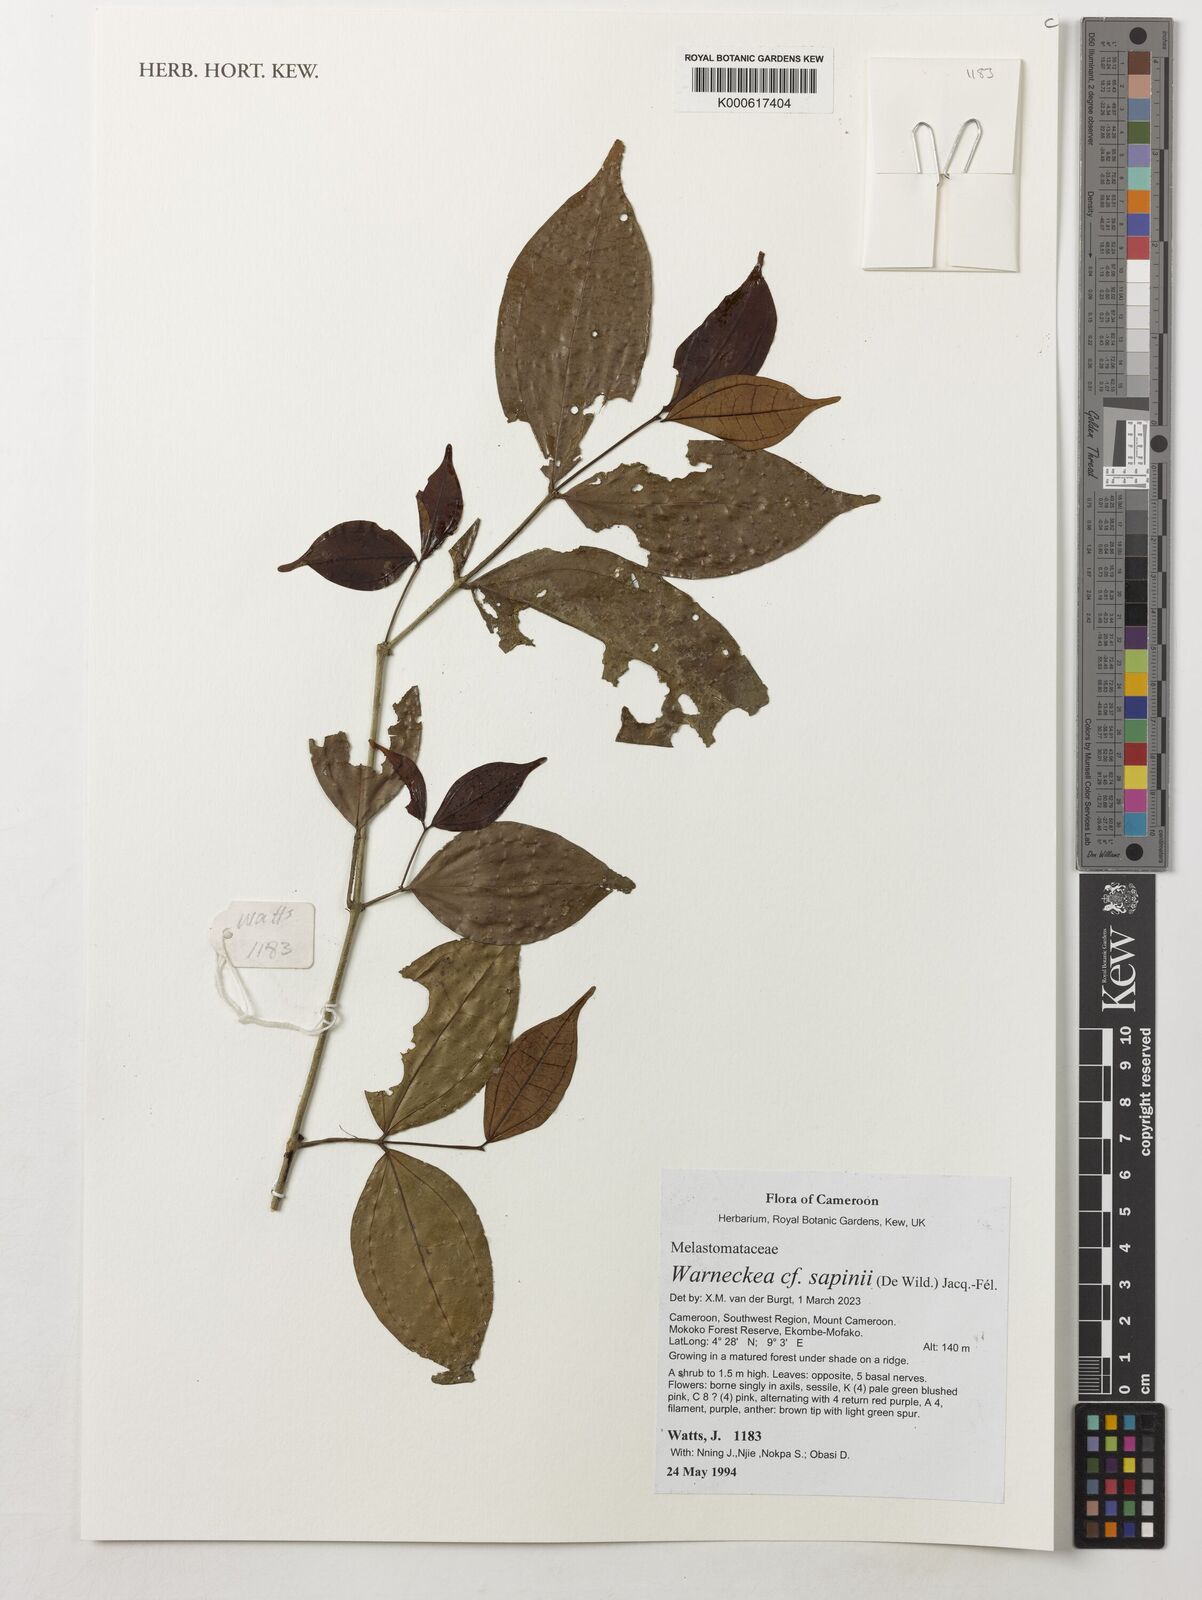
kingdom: Plantae
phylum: Tracheophyta
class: Magnoliopsida
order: Myrtales
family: Melastomataceae
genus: Warneckea
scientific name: Warneckea sapinii
